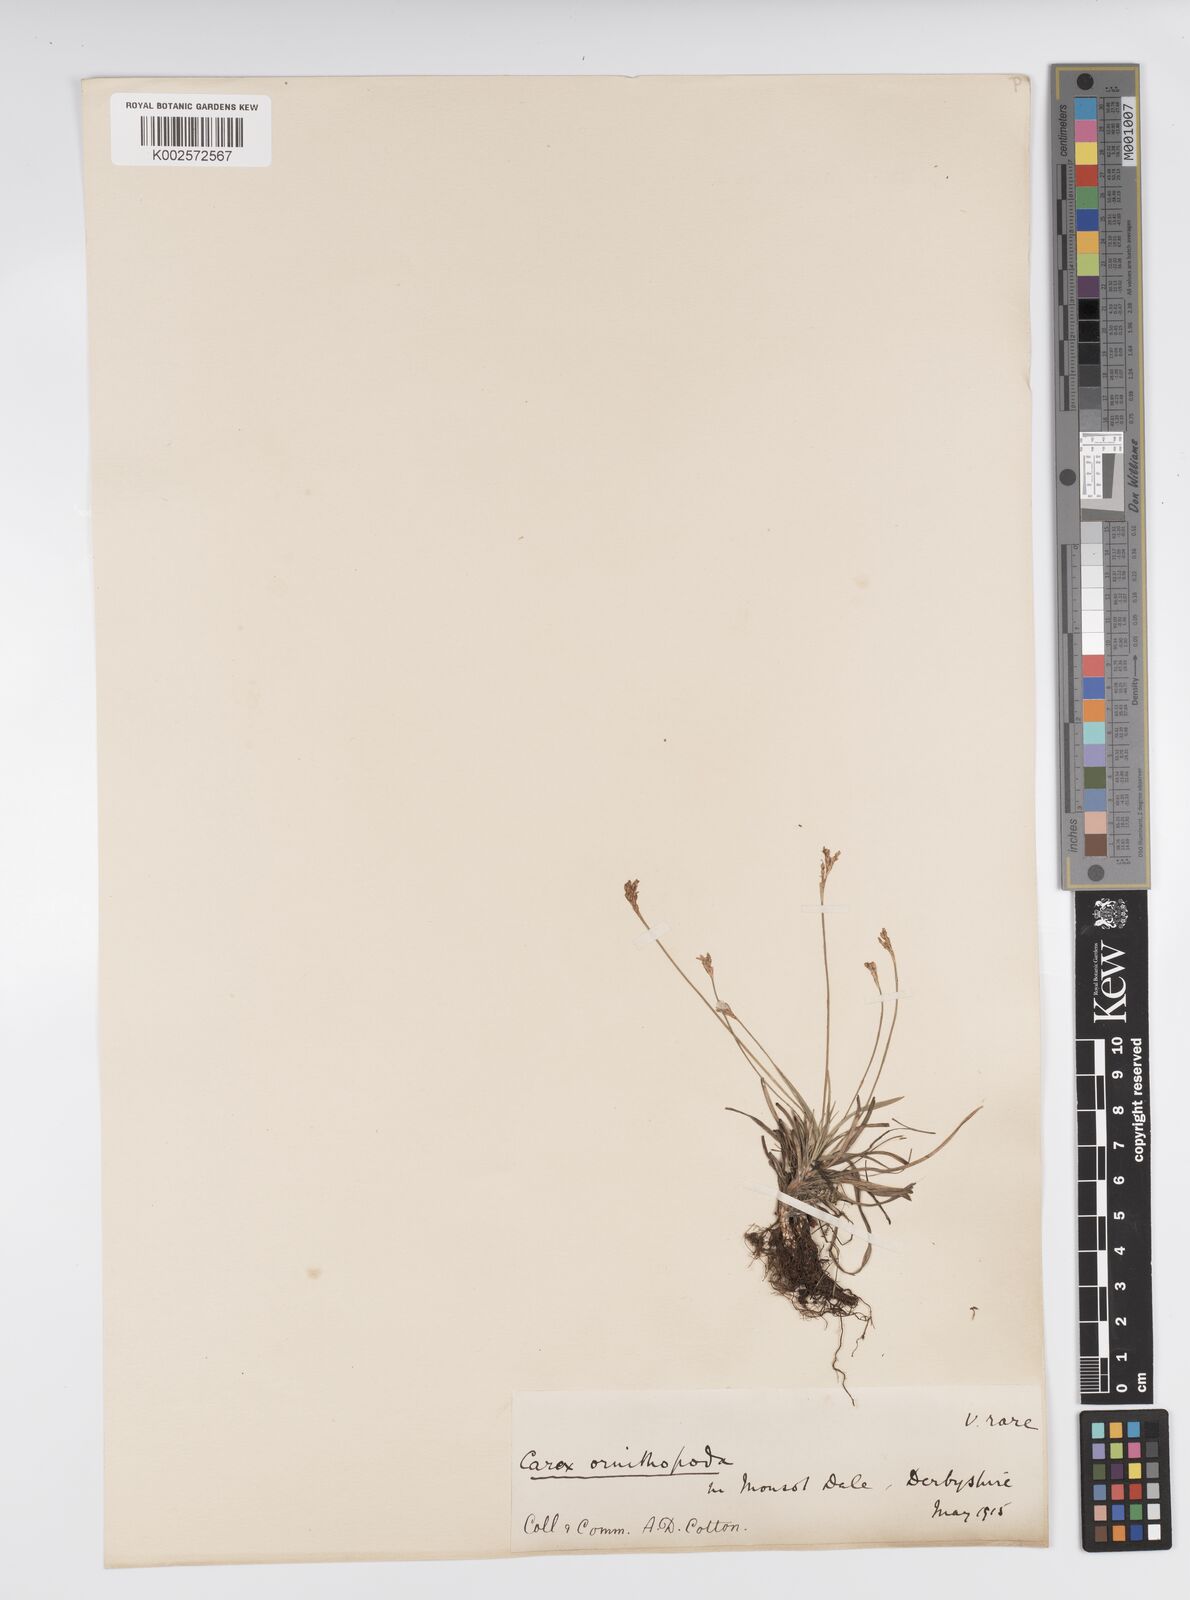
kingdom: Plantae
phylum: Tracheophyta
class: Liliopsida
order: Poales
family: Cyperaceae
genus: Carex
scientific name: Carex ornithopoda
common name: Bird's-foot sedge
